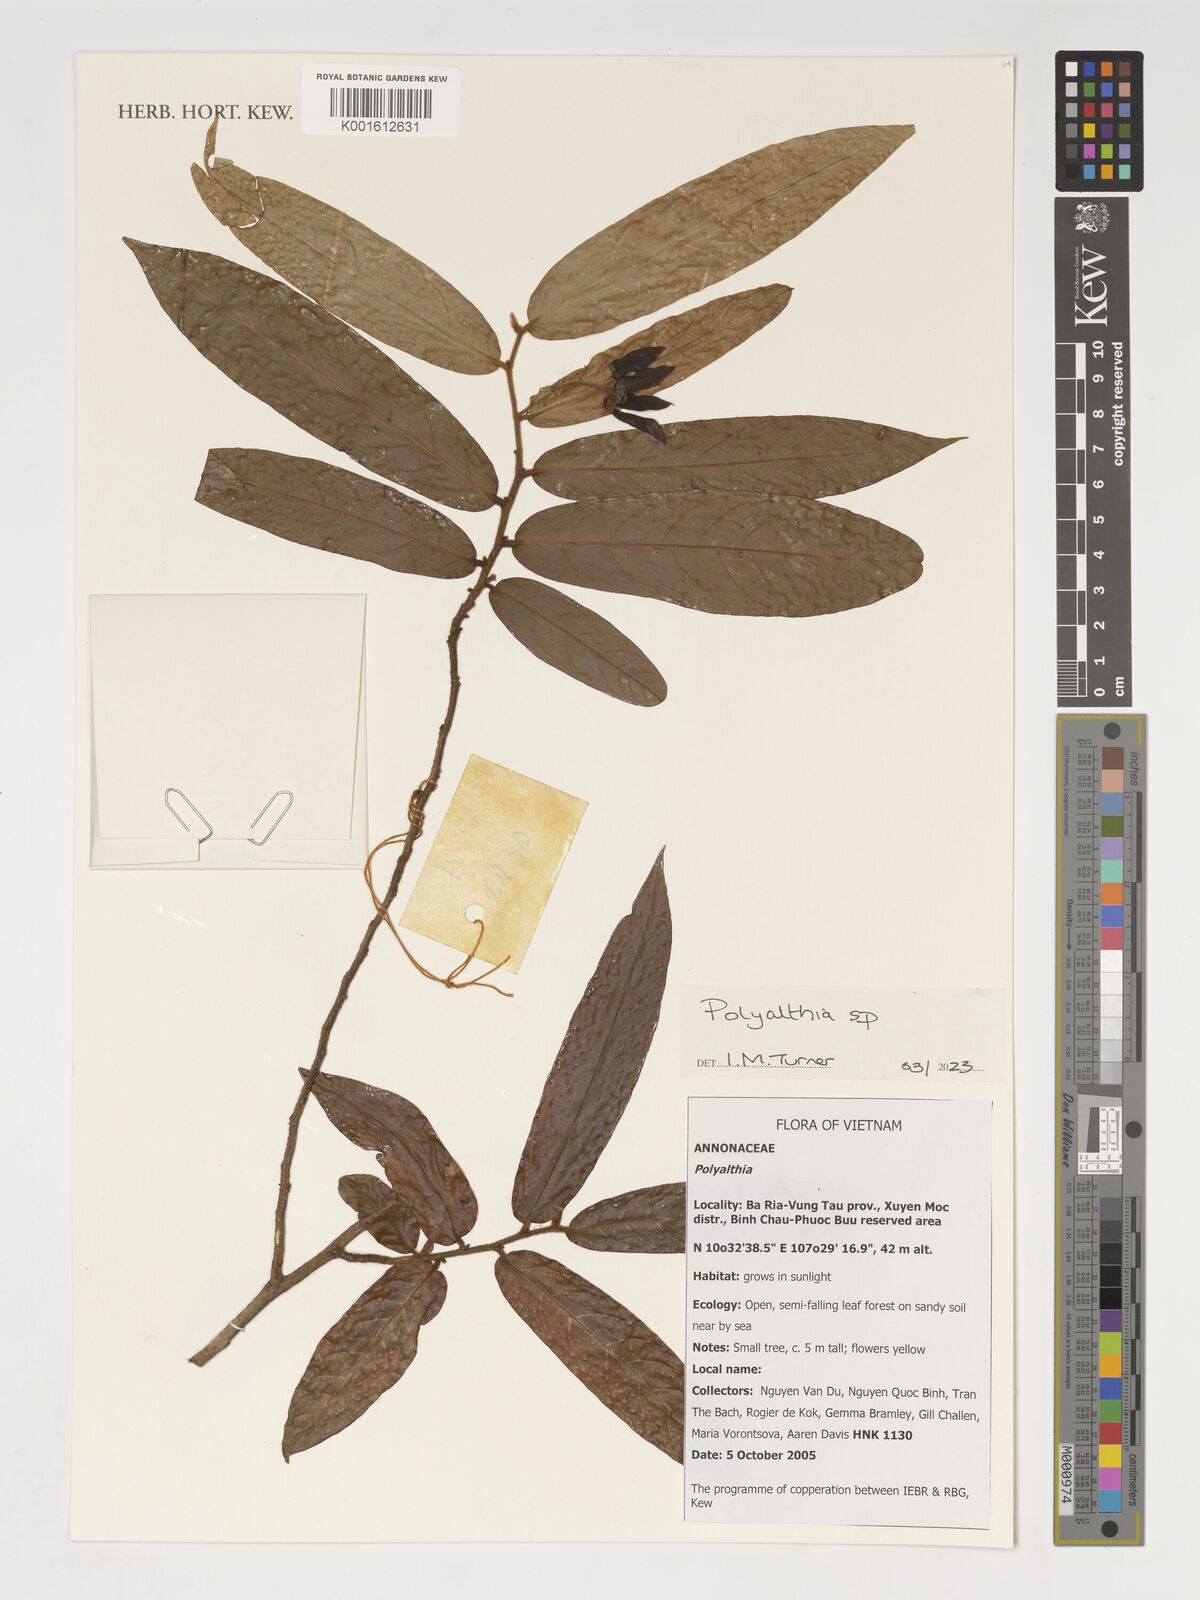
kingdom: Plantae
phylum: Tracheophyta
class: Magnoliopsida
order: Magnoliales
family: Annonaceae
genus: Polyalthia
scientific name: Polyalthia
